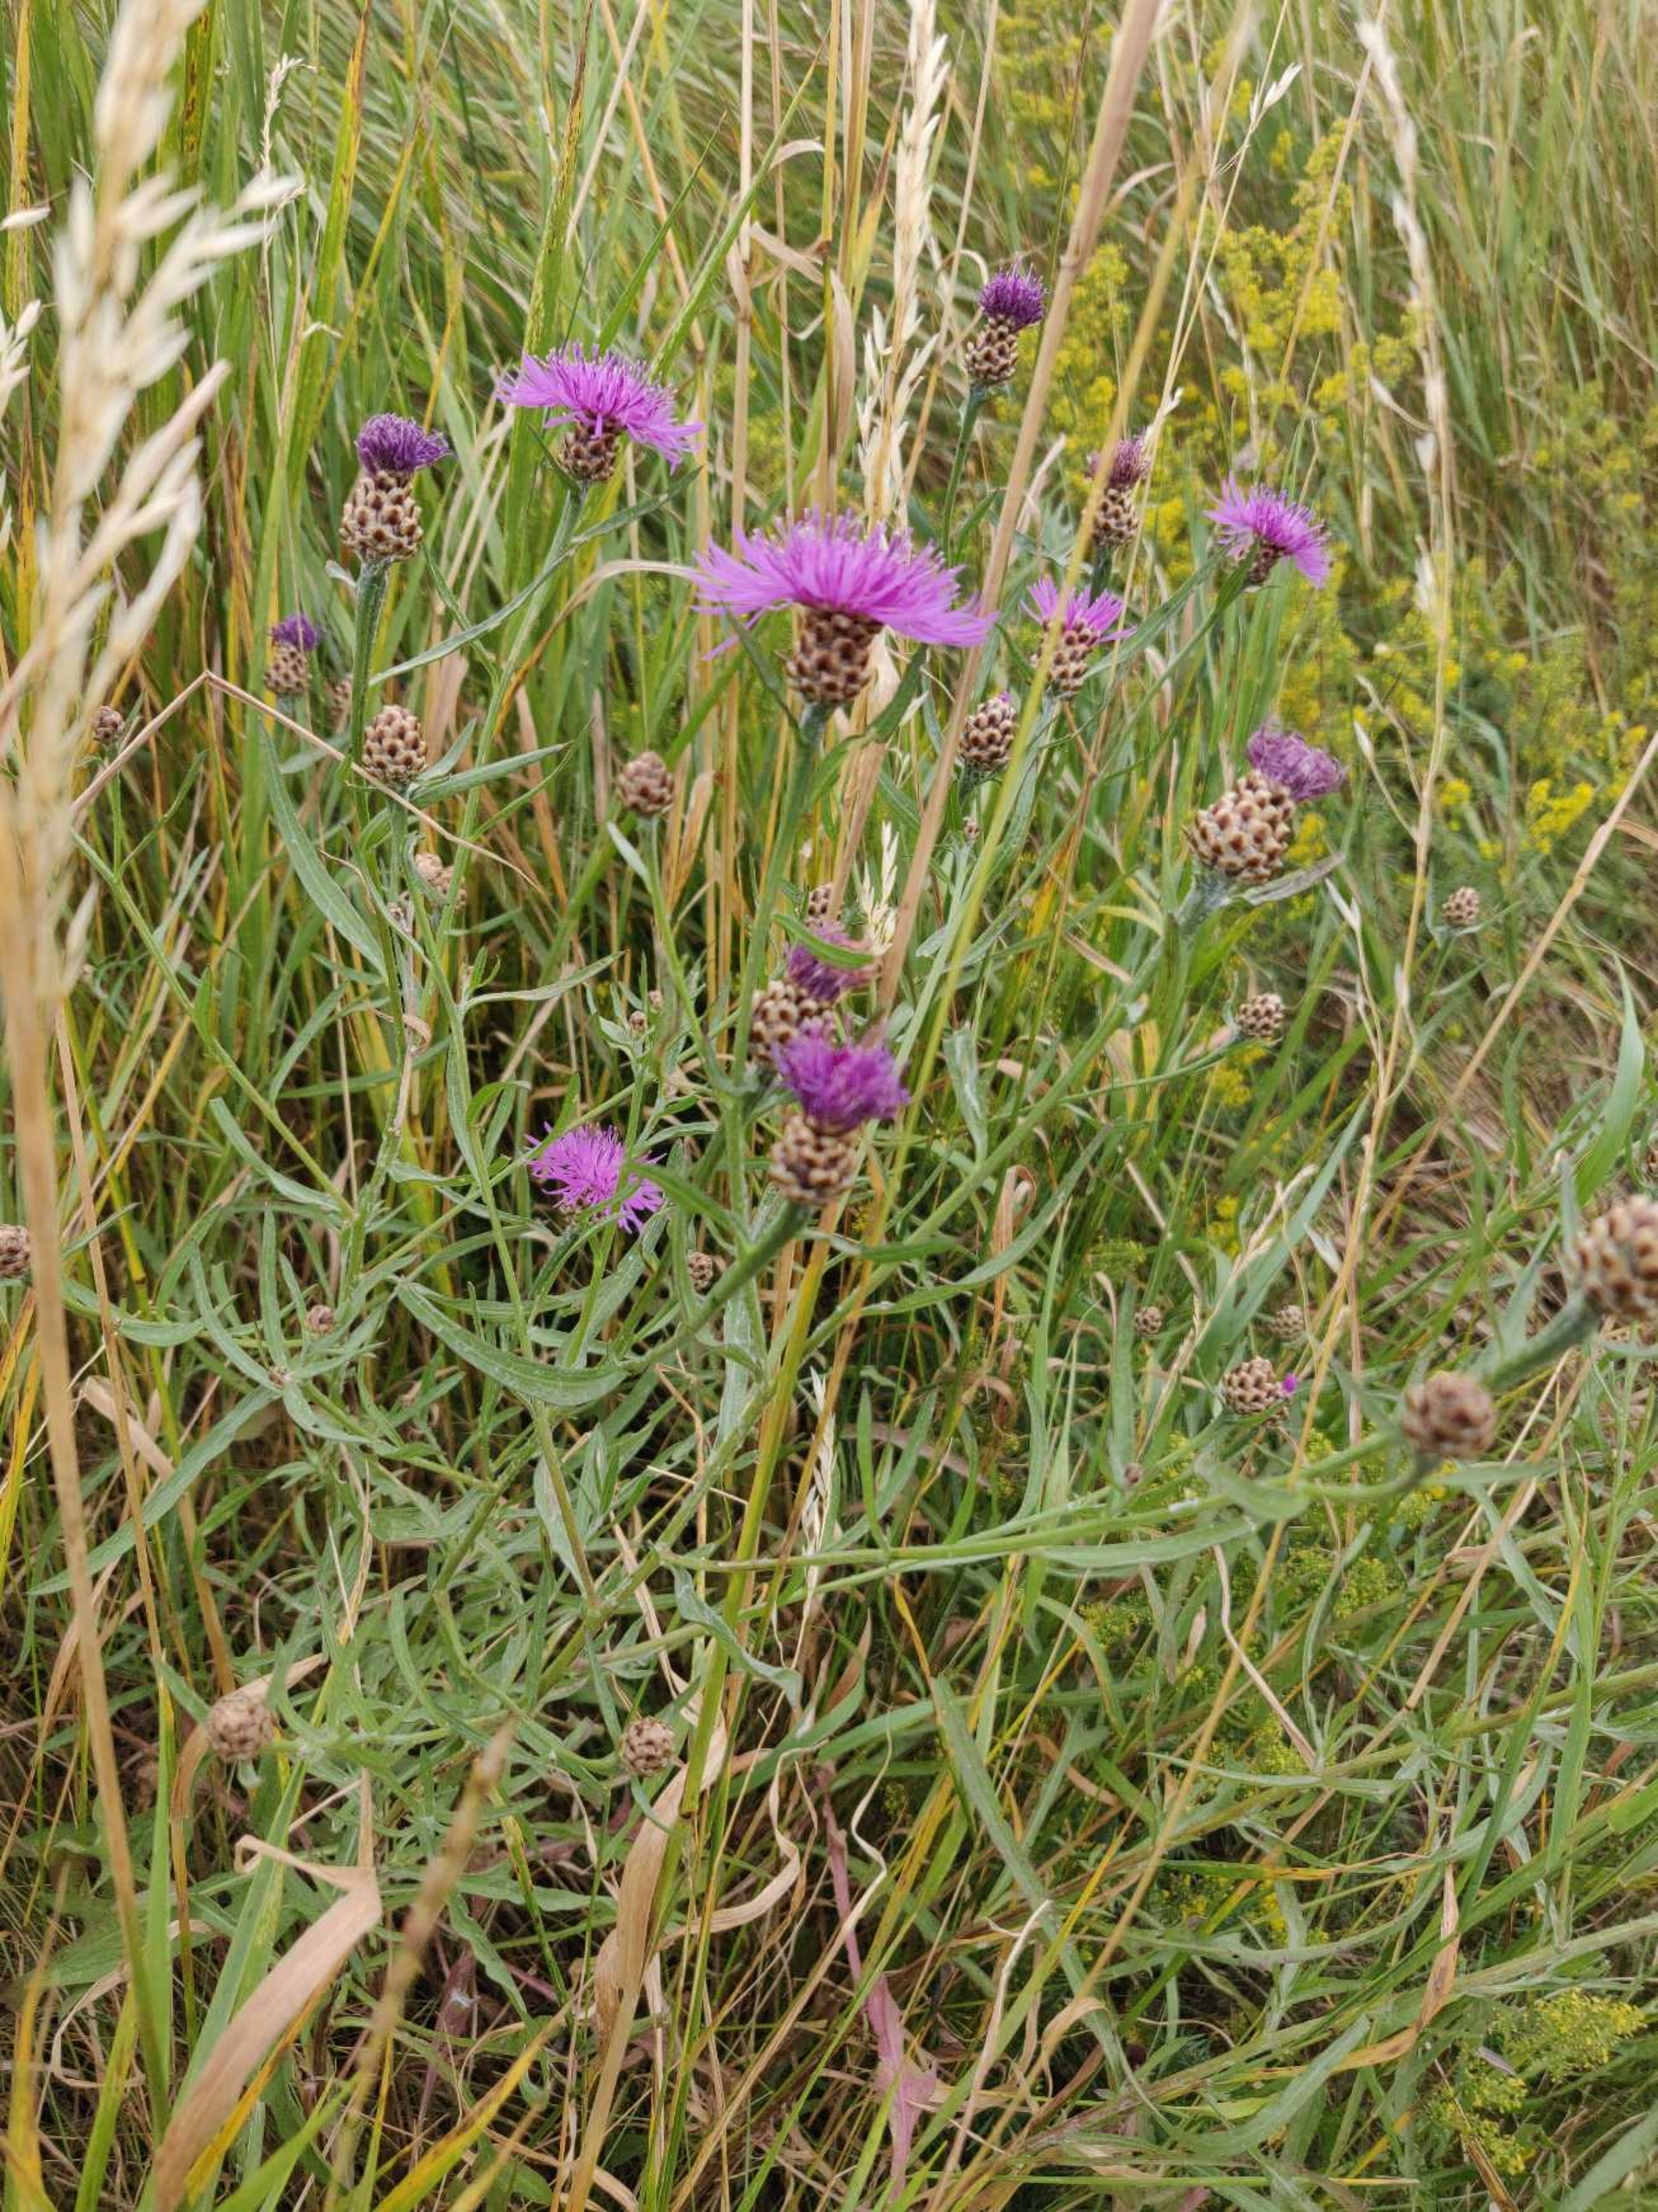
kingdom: Plantae
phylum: Tracheophyta
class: Magnoliopsida
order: Asterales
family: Asteraceae
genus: Centaurea
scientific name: Centaurea jacea
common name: Almindelig knopurt
